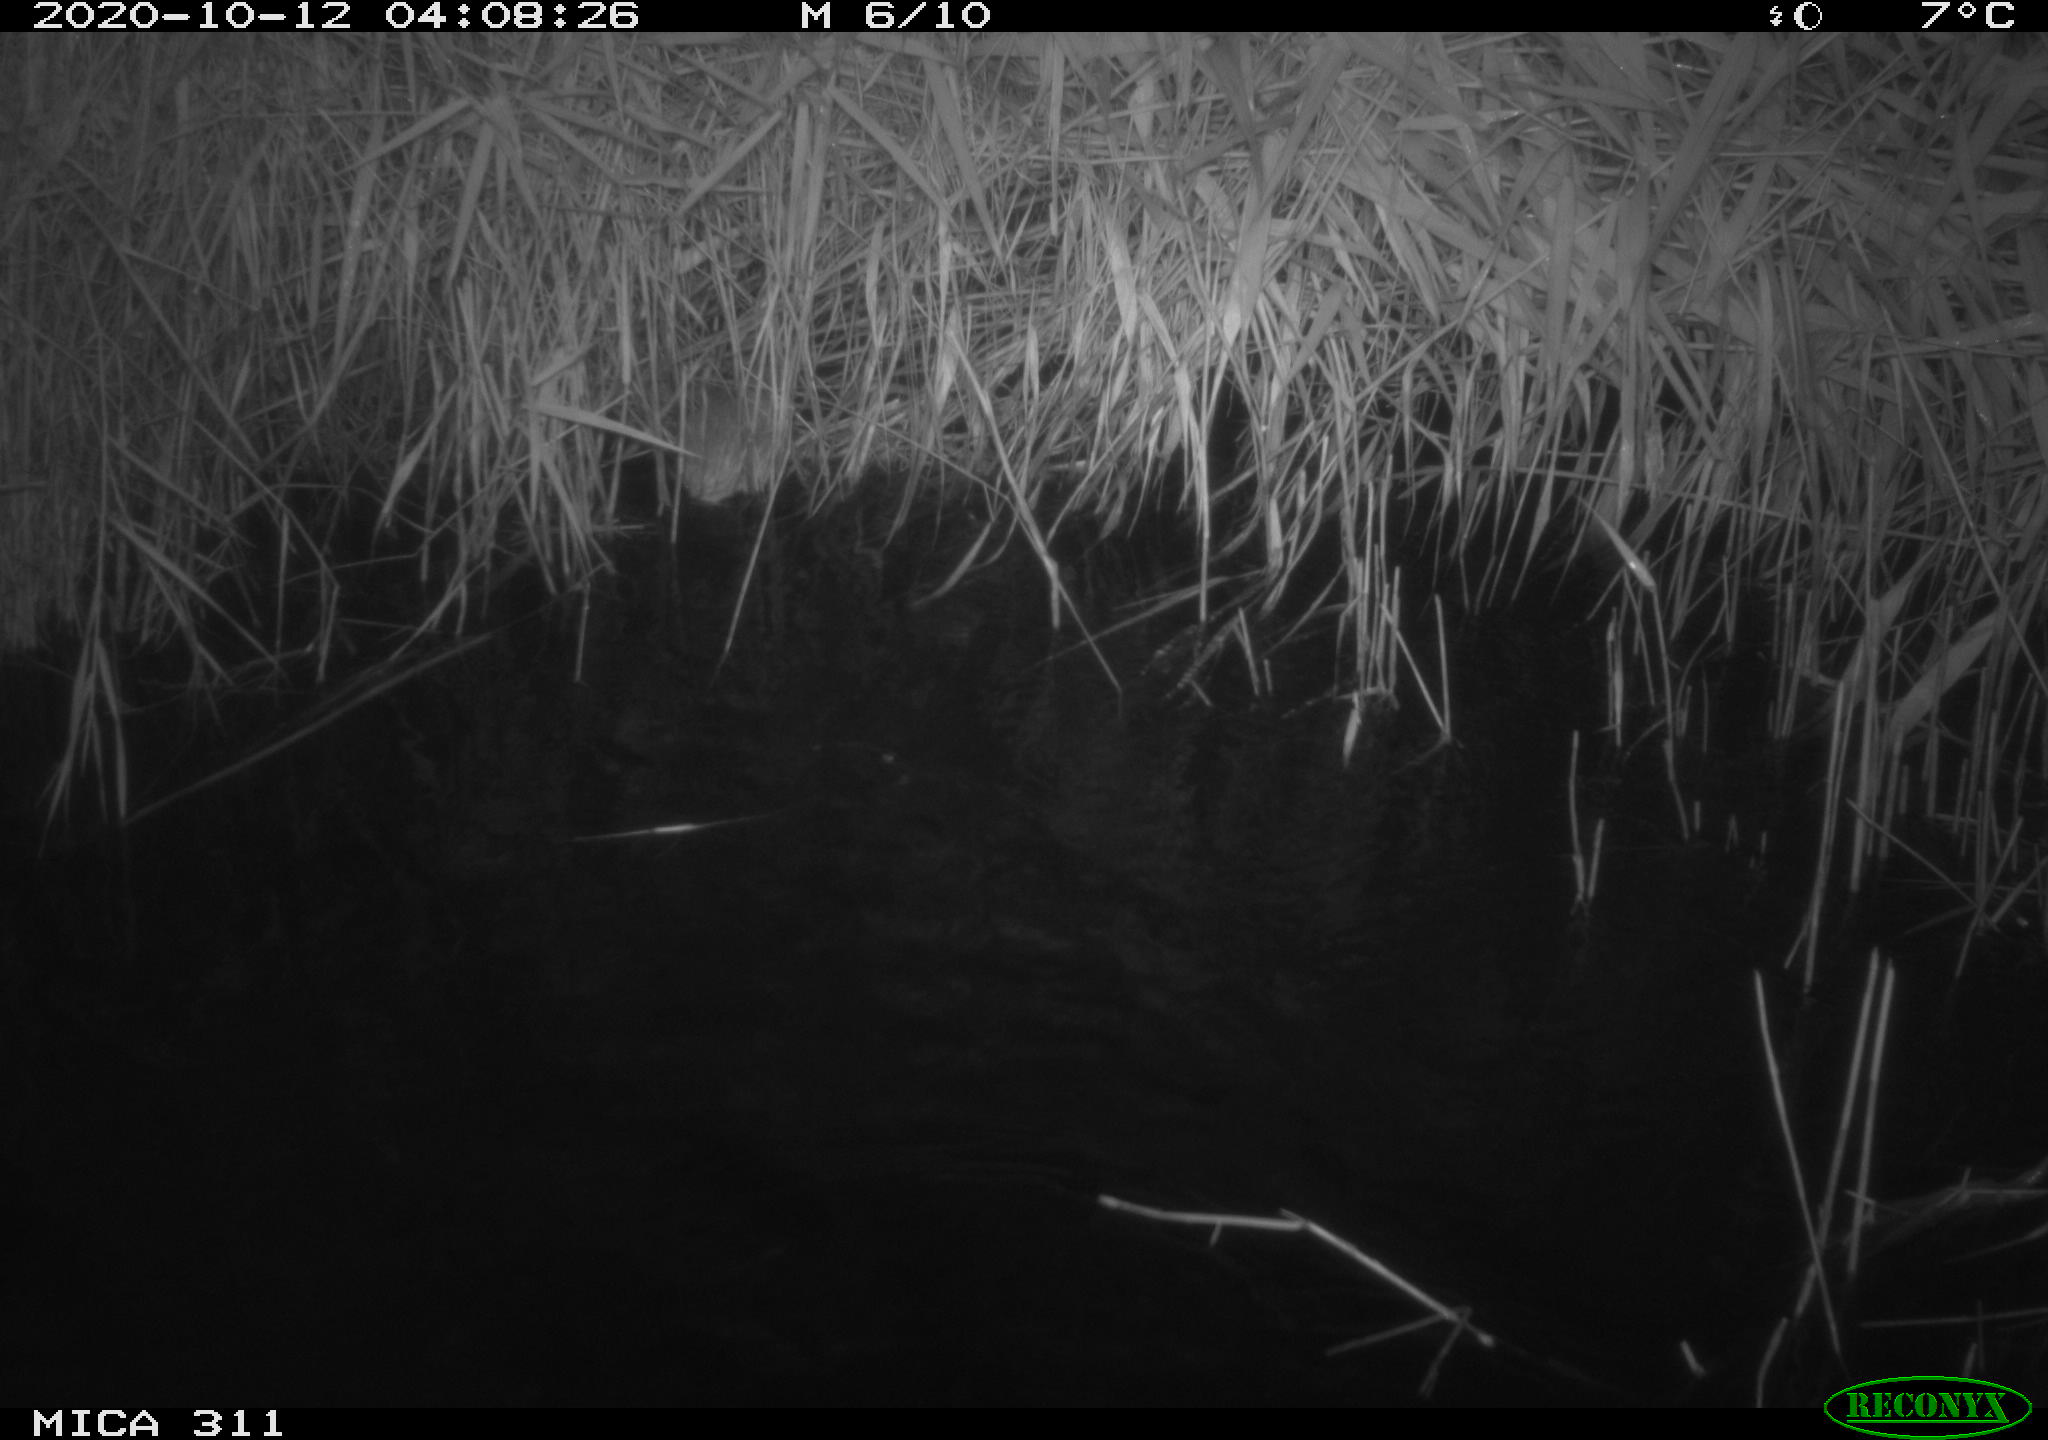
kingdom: Animalia
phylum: Chordata
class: Mammalia
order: Rodentia
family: Cricetidae
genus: Ondatra
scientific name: Ondatra zibethicus
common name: Muskrat
